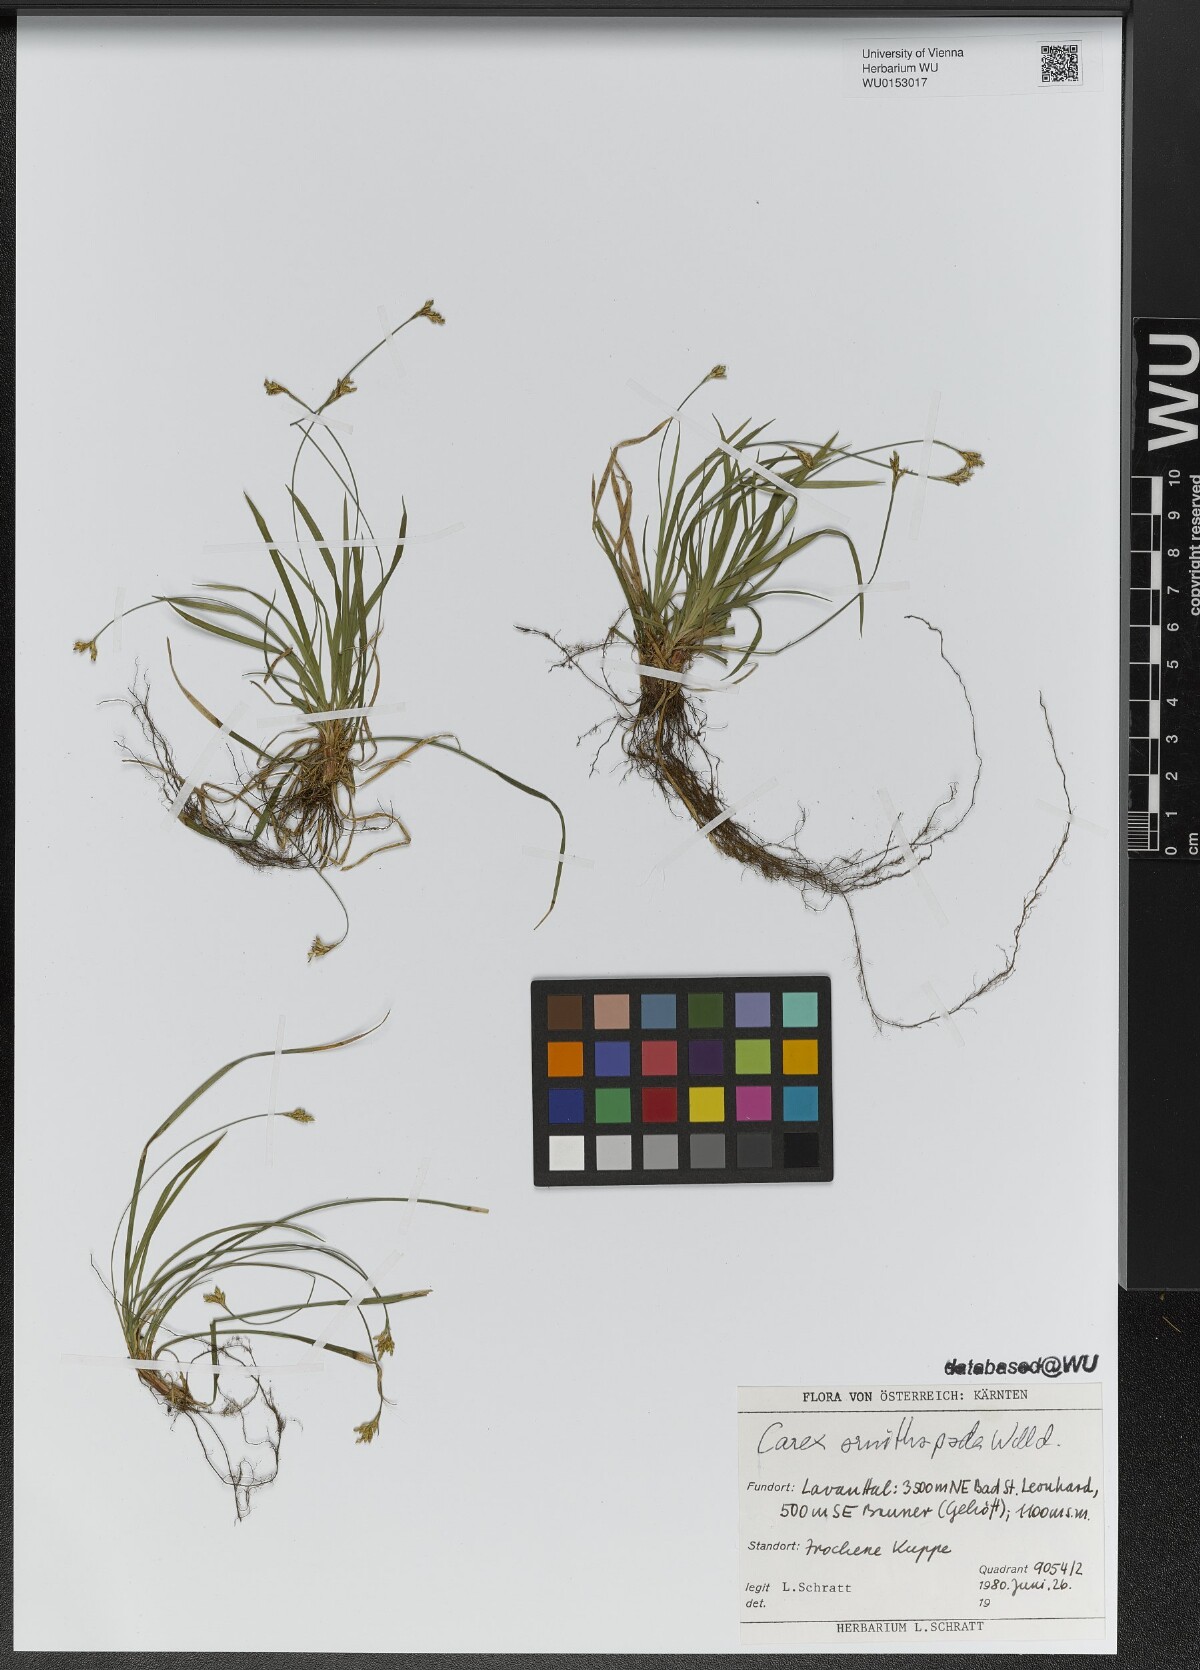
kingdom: Plantae
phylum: Tracheophyta
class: Liliopsida
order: Poales
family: Cyperaceae
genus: Carex
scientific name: Carex ornithopoda
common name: Bird's-foot sedge
